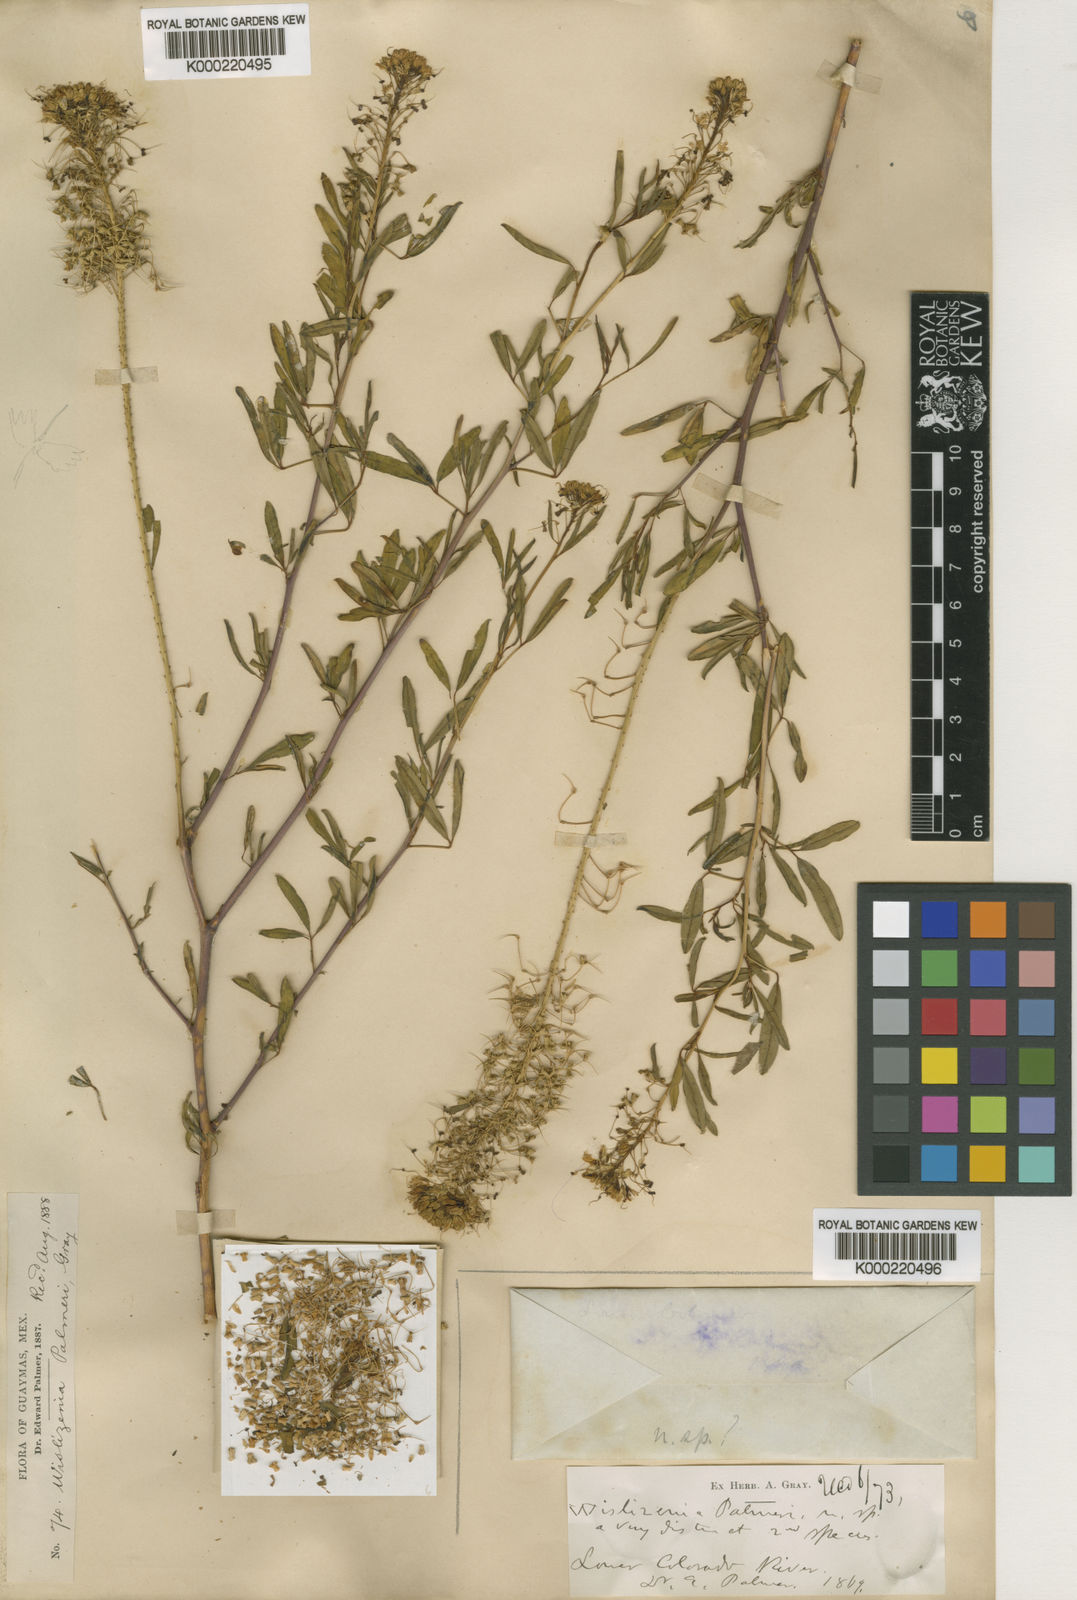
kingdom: Plantae
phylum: Tracheophyta
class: Magnoliopsida
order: Brassicales
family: Cleomaceae
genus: Cleomella
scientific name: Cleomella palmeri
